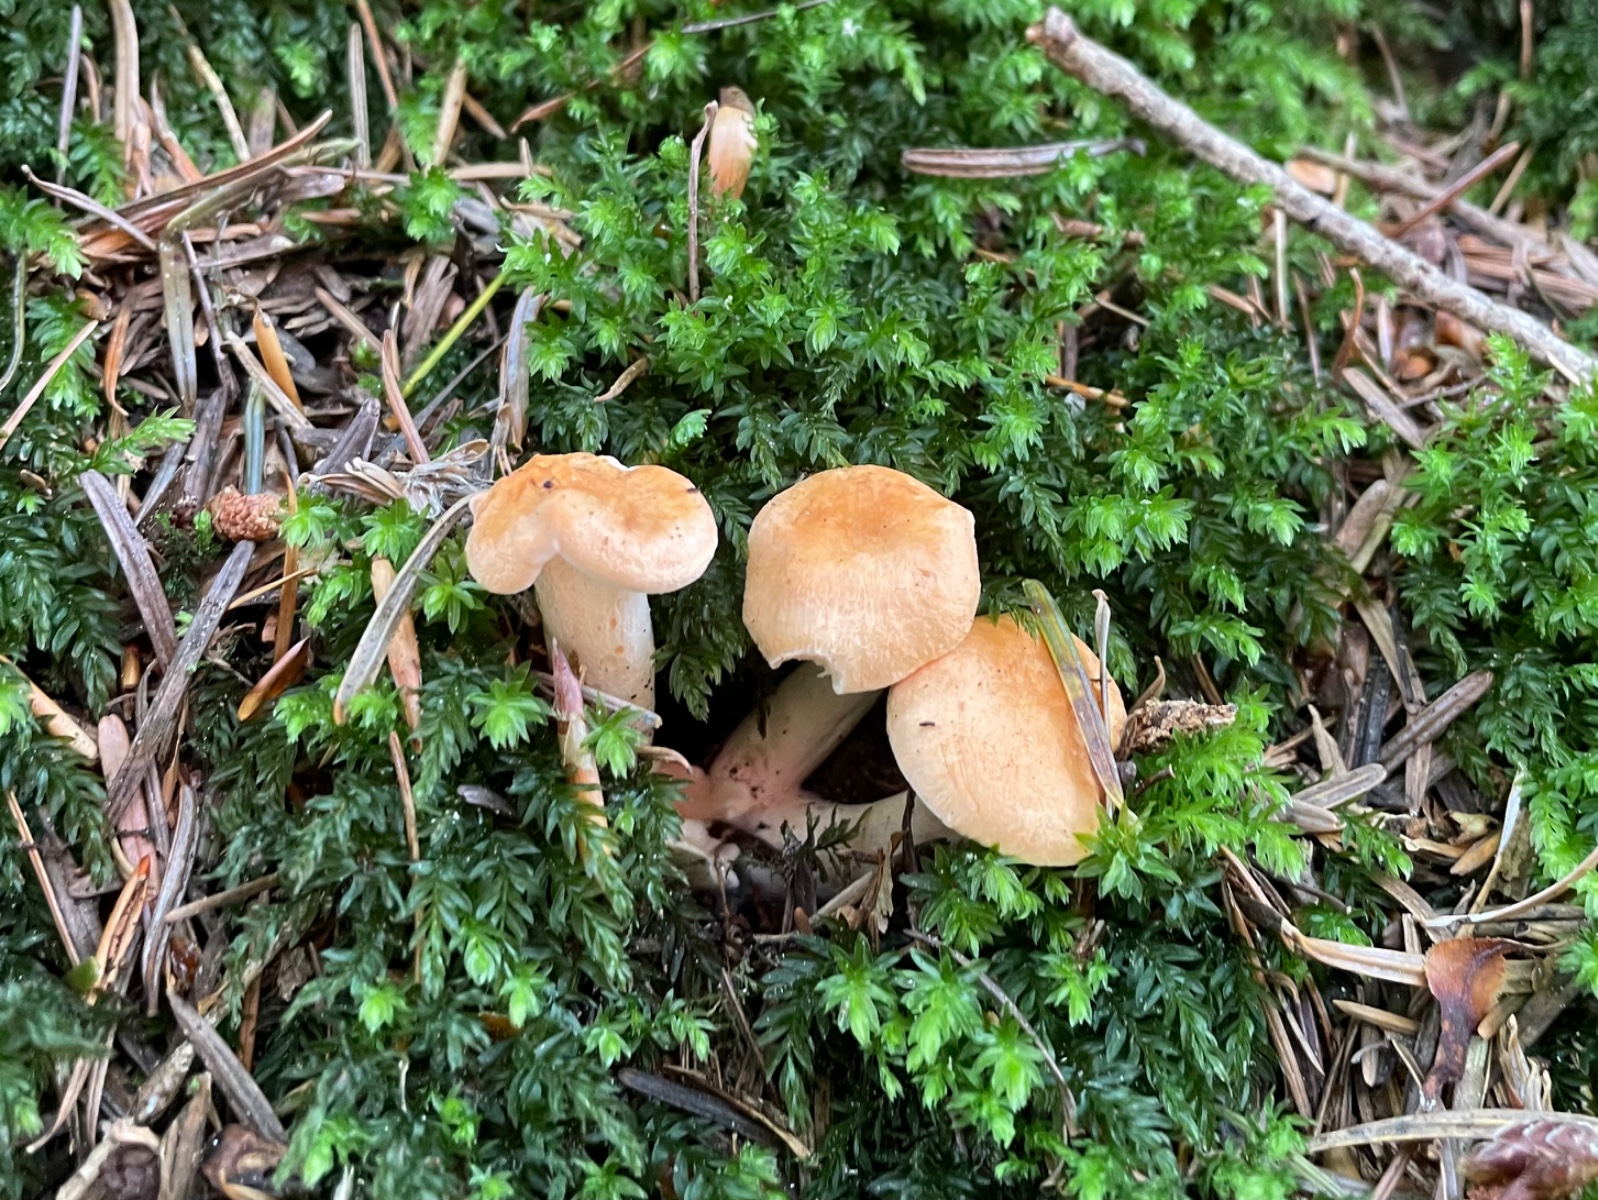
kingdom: Fungi
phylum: Basidiomycota
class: Agaricomycetes
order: Cantharellales
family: Hydnaceae
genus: Hydnum
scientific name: Hydnum
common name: pigsvamp
